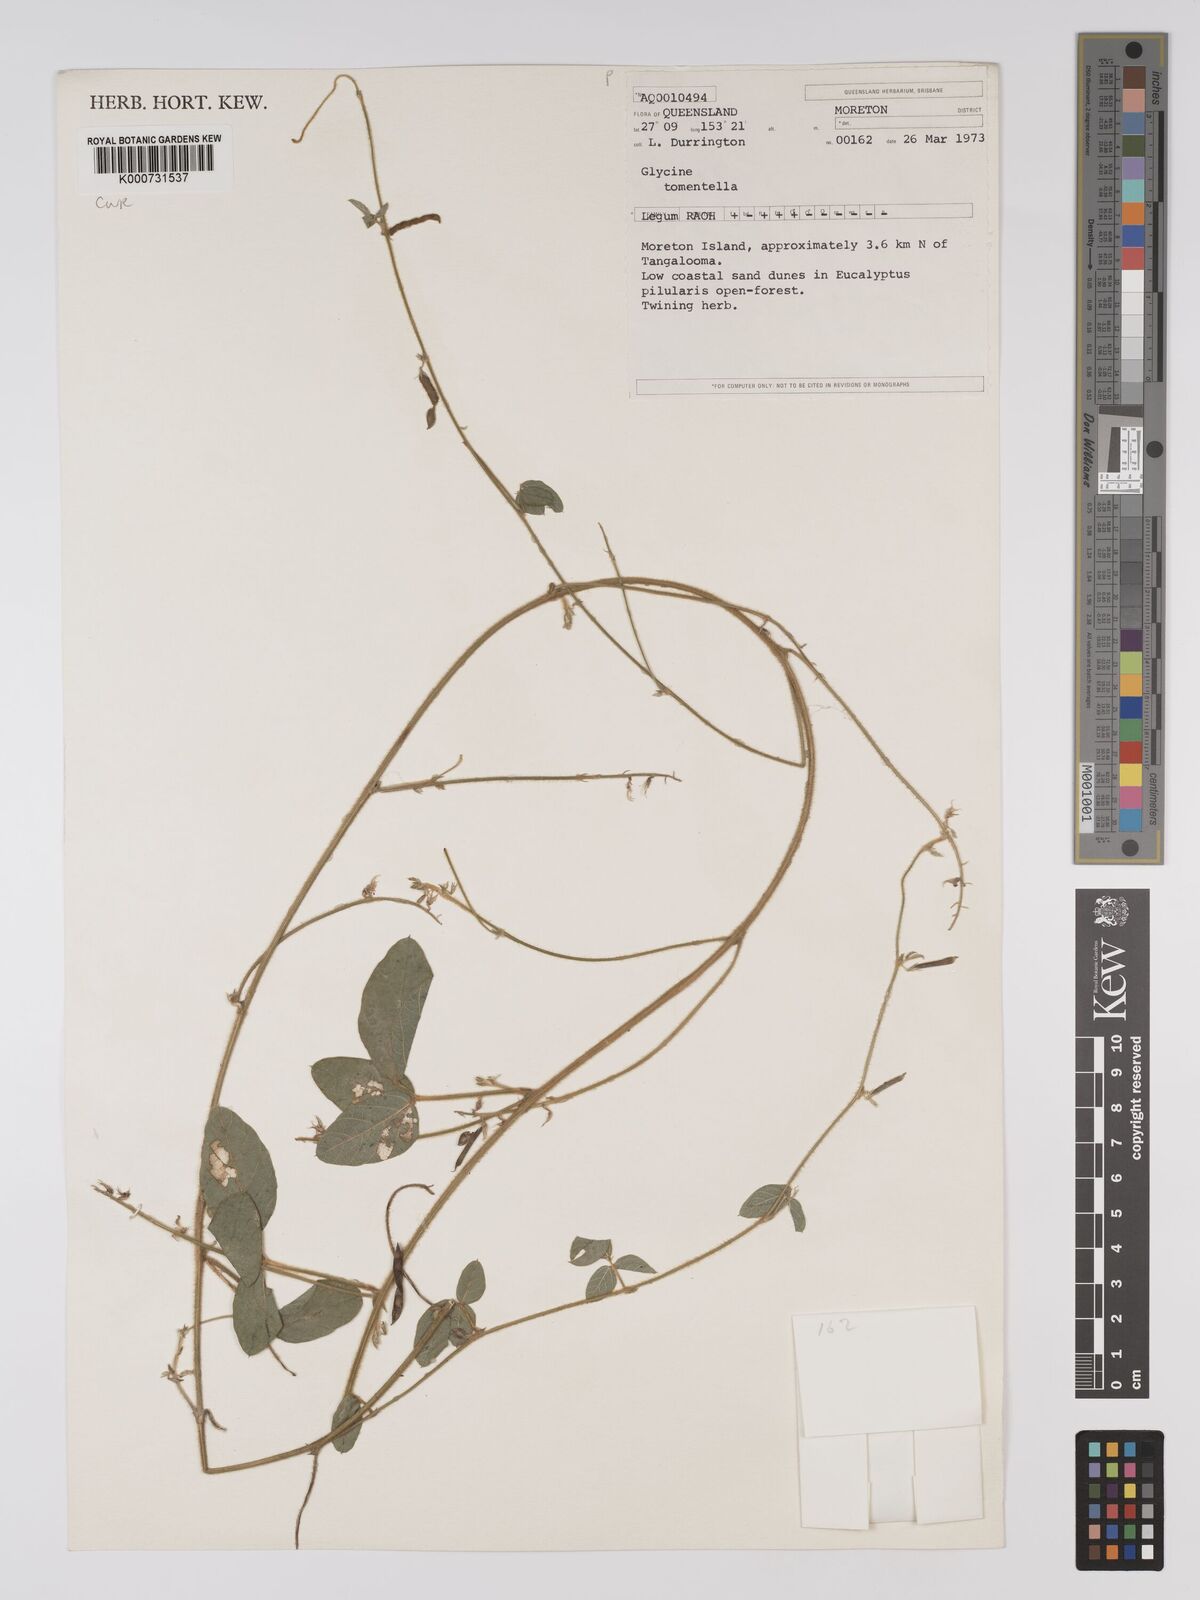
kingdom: Plantae
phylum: Tracheophyta
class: Magnoliopsida
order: Fabales
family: Fabaceae
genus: Glycine
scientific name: Glycine tomentella
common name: Hairy glycine
